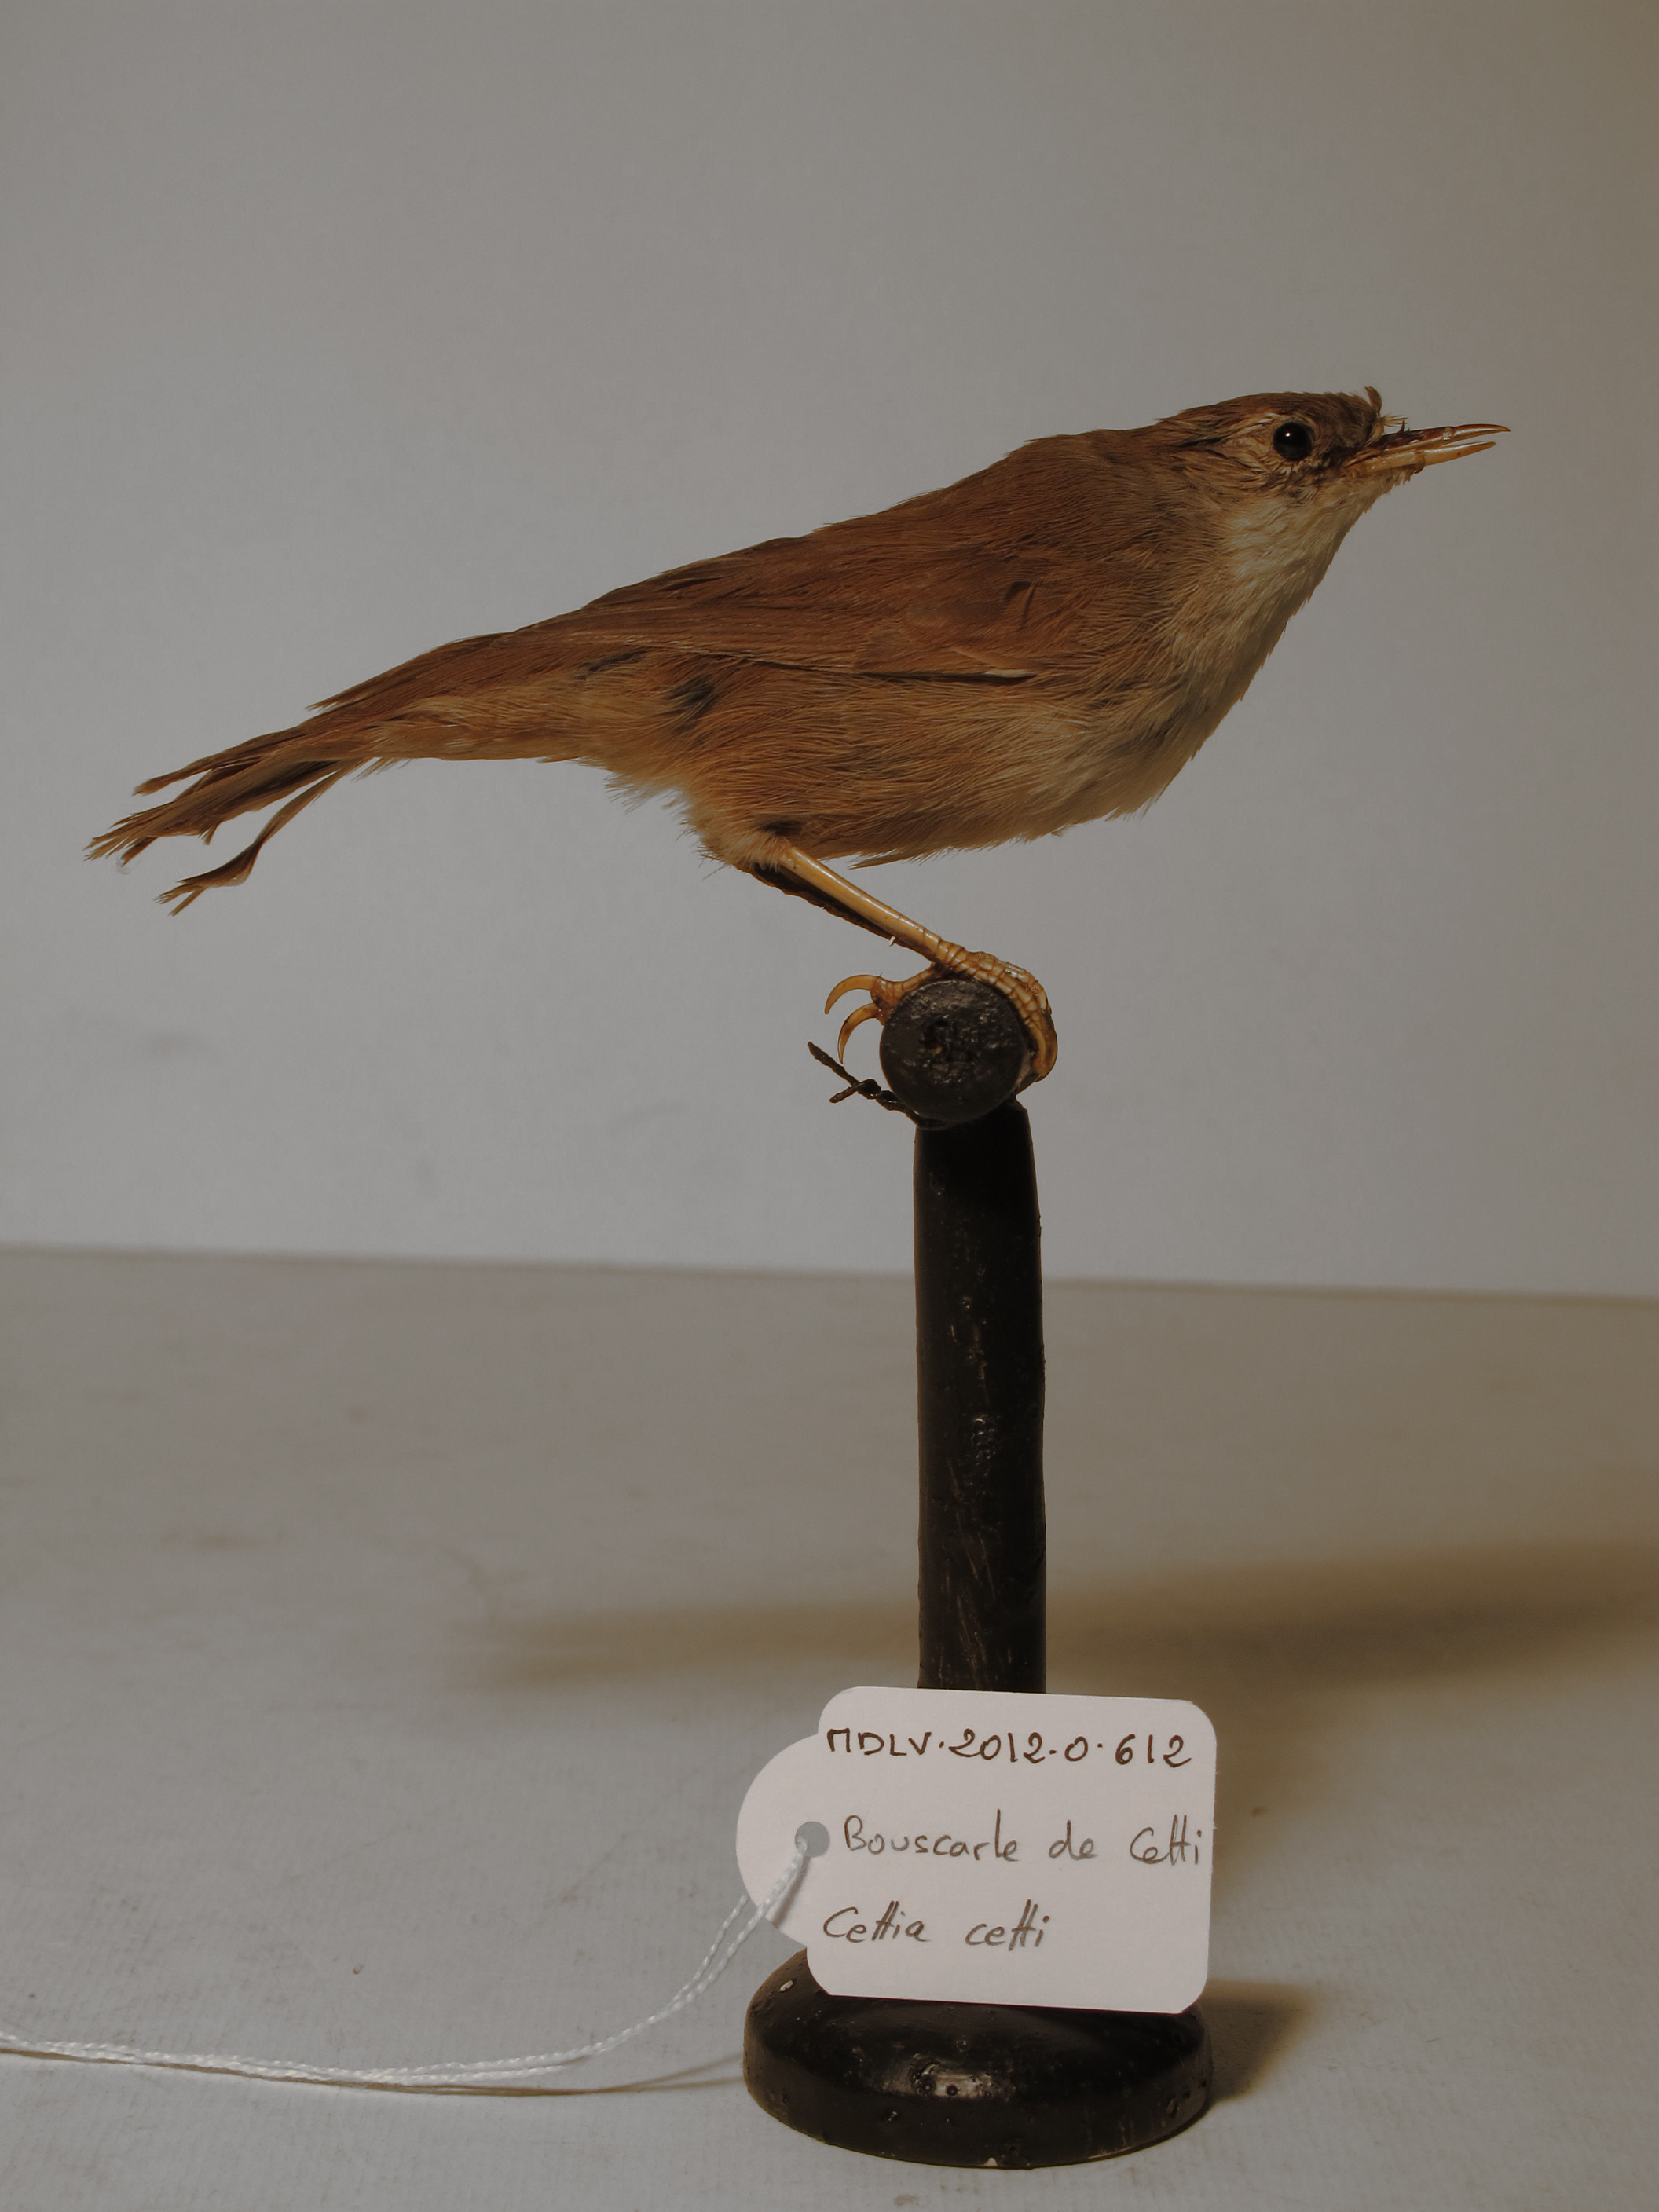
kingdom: Animalia
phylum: Chordata
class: Aves
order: Passeriformes
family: Cettiidae
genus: Cettia
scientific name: Cettia cetti
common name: Cetti's Warbler
